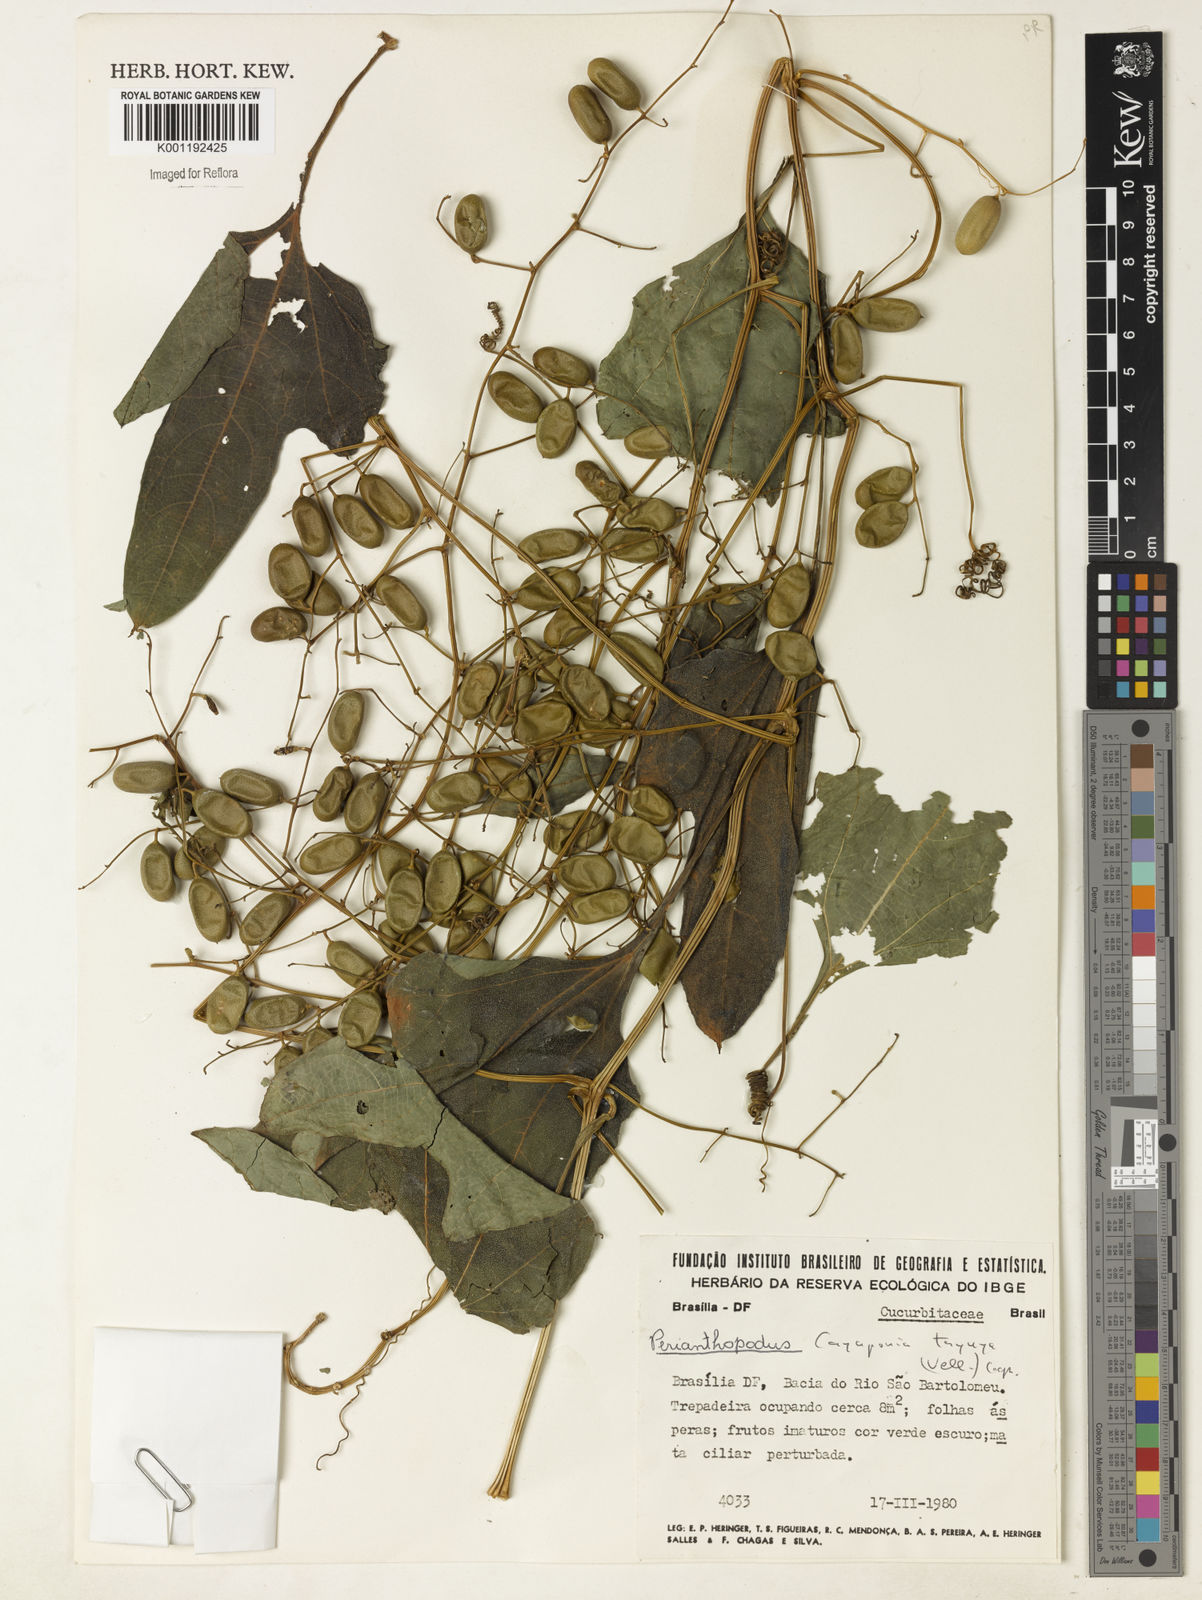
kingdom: Plantae
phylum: Tracheophyta
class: Magnoliopsida
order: Cucurbitales
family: Cucurbitaceae
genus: Cayaponia
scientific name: Cayaponia tayuya
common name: Tayuya
